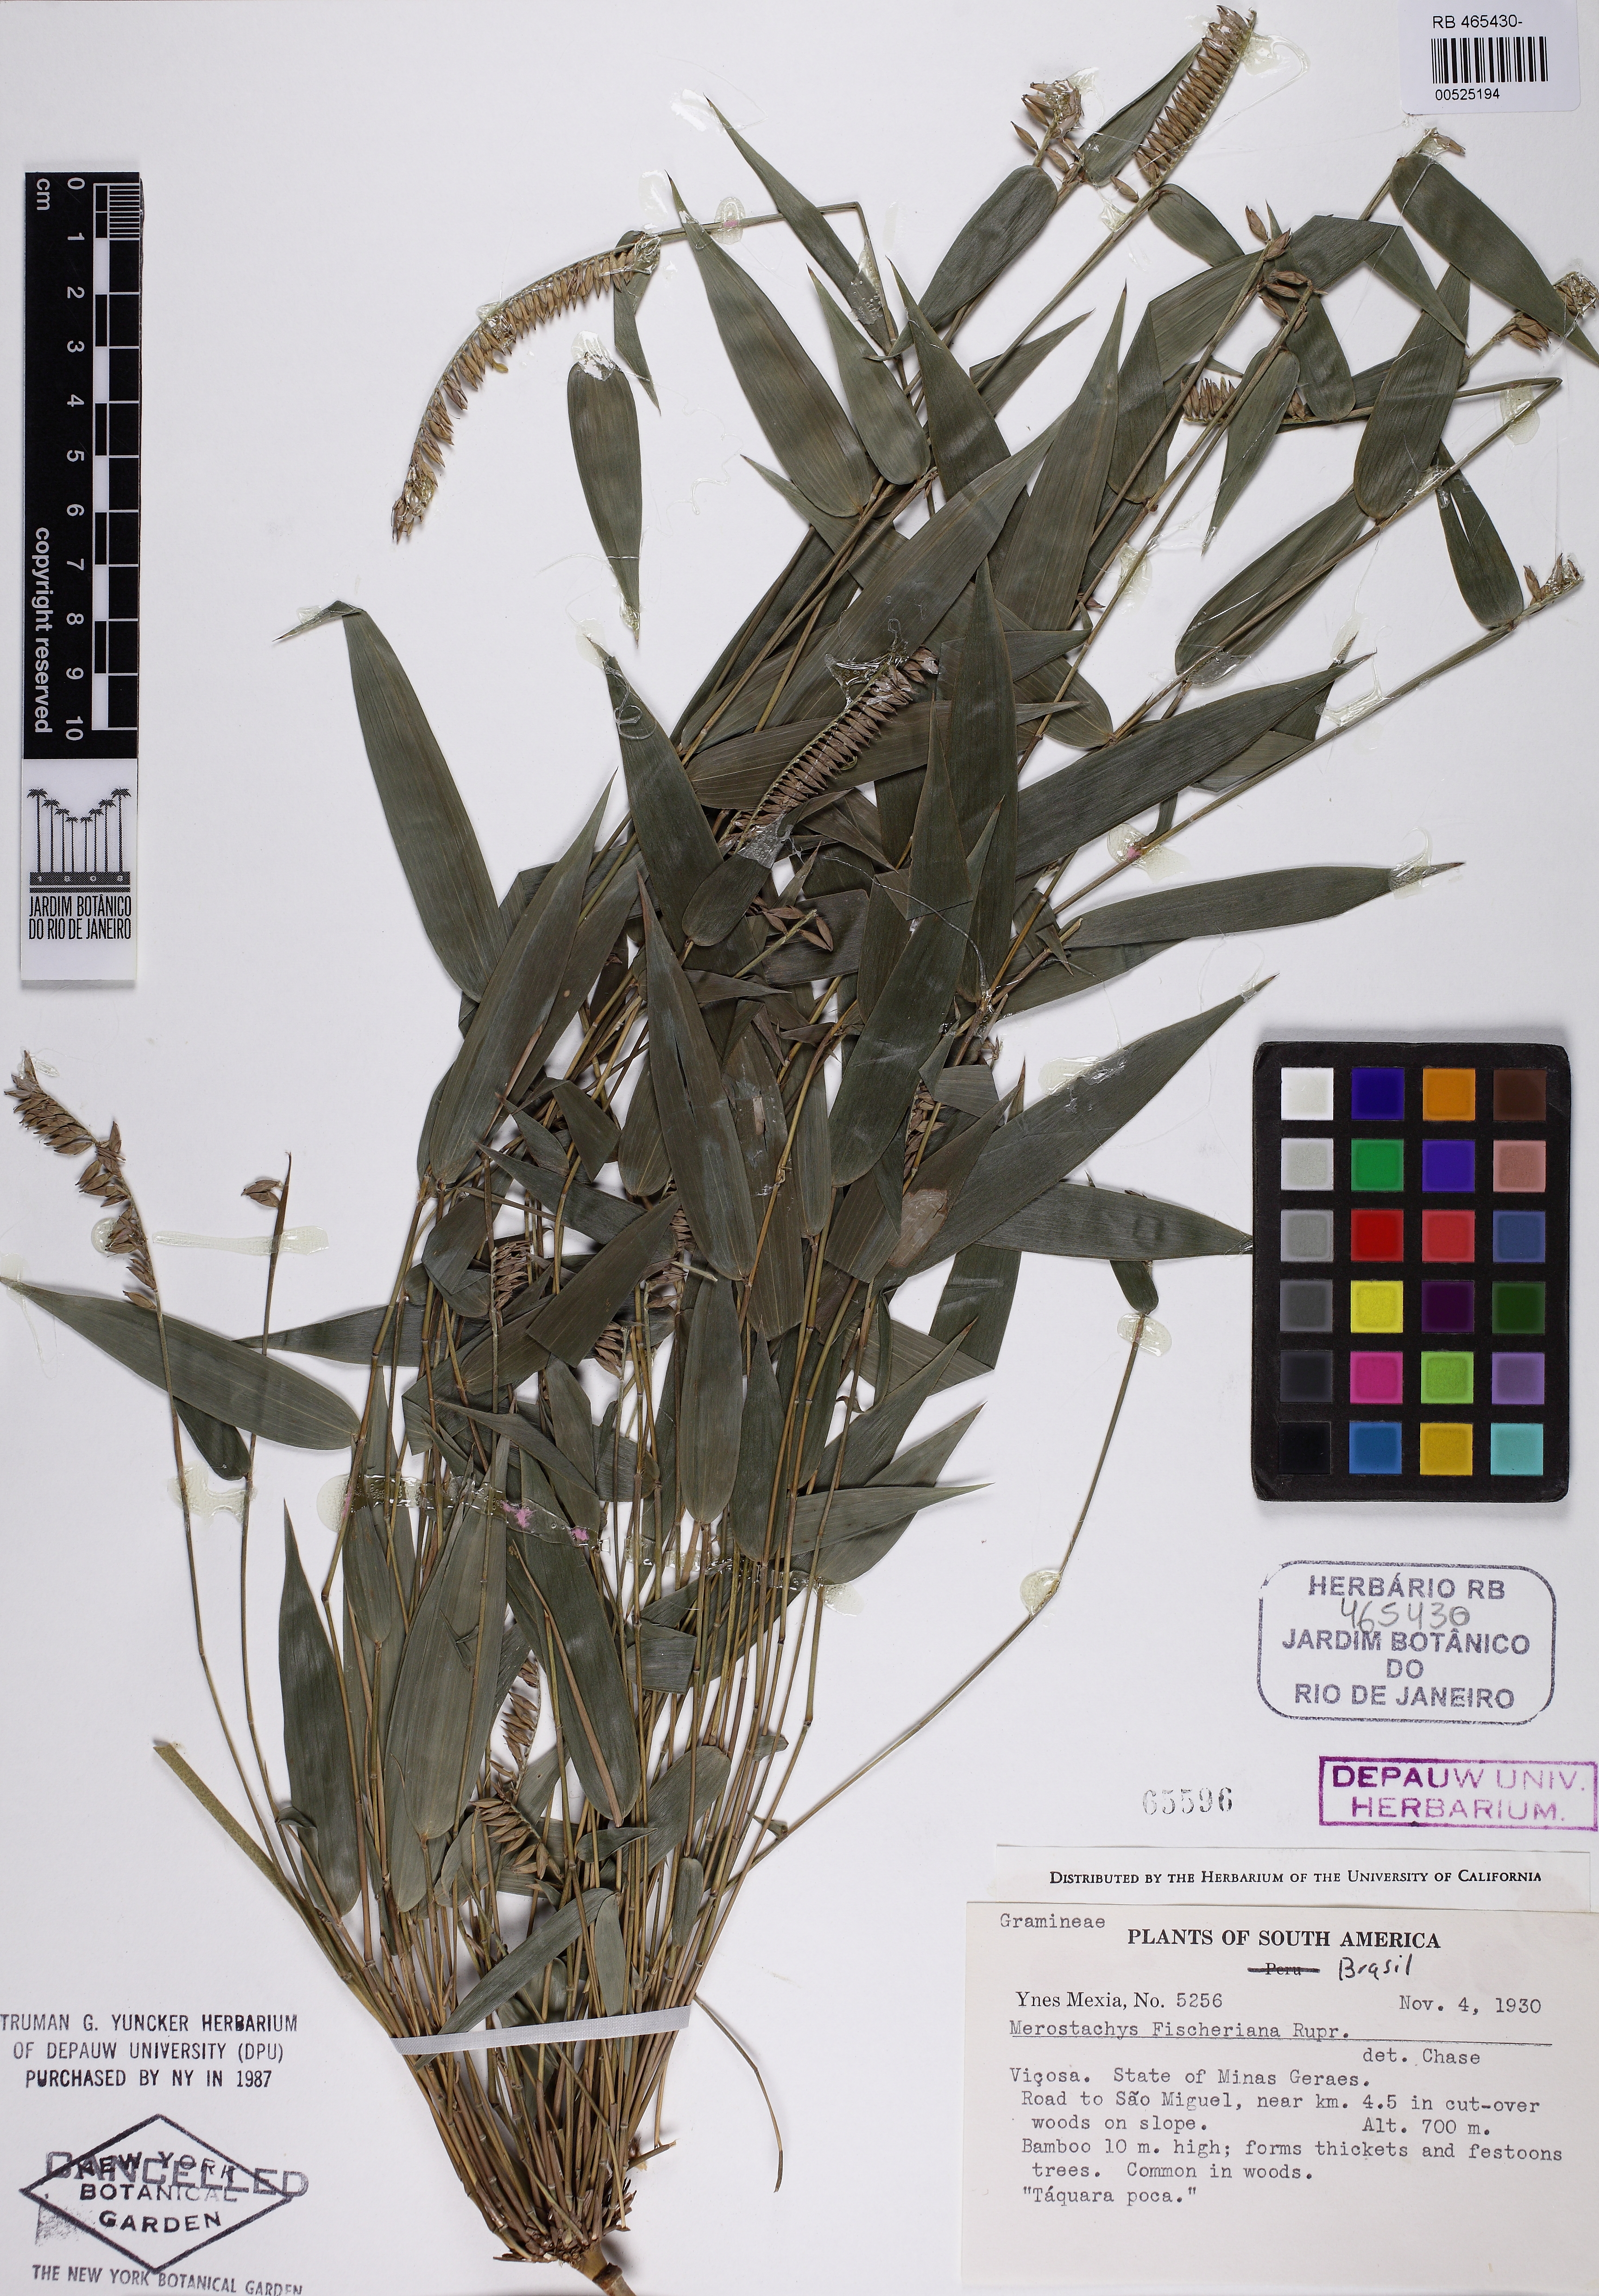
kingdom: Plantae
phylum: Tracheophyta
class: Liliopsida
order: Poales
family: Poaceae
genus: Merostachys
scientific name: Merostachys fischeriana
